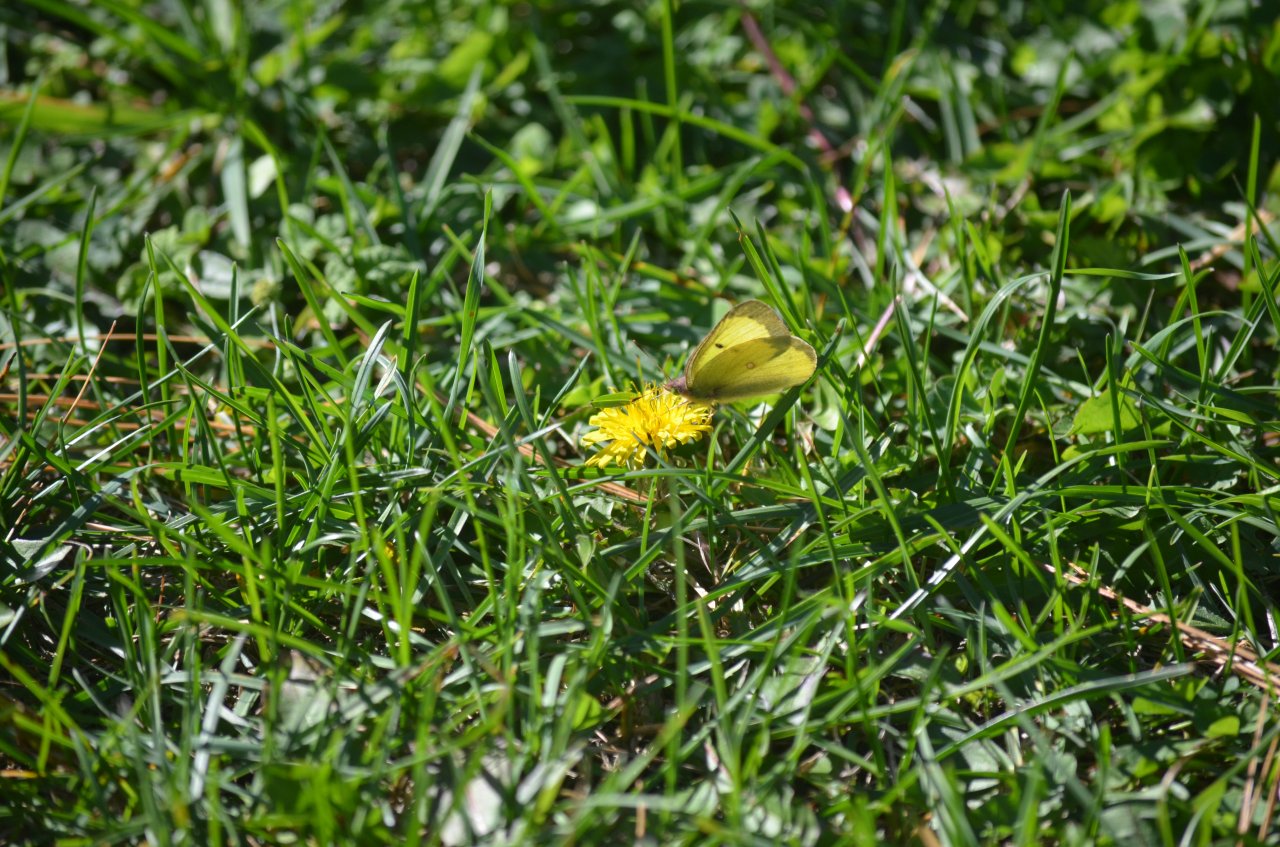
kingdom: Animalia
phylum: Arthropoda
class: Insecta
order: Lepidoptera
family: Pieridae
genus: Colias
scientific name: Colias philodice
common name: Clouded Sulphur
